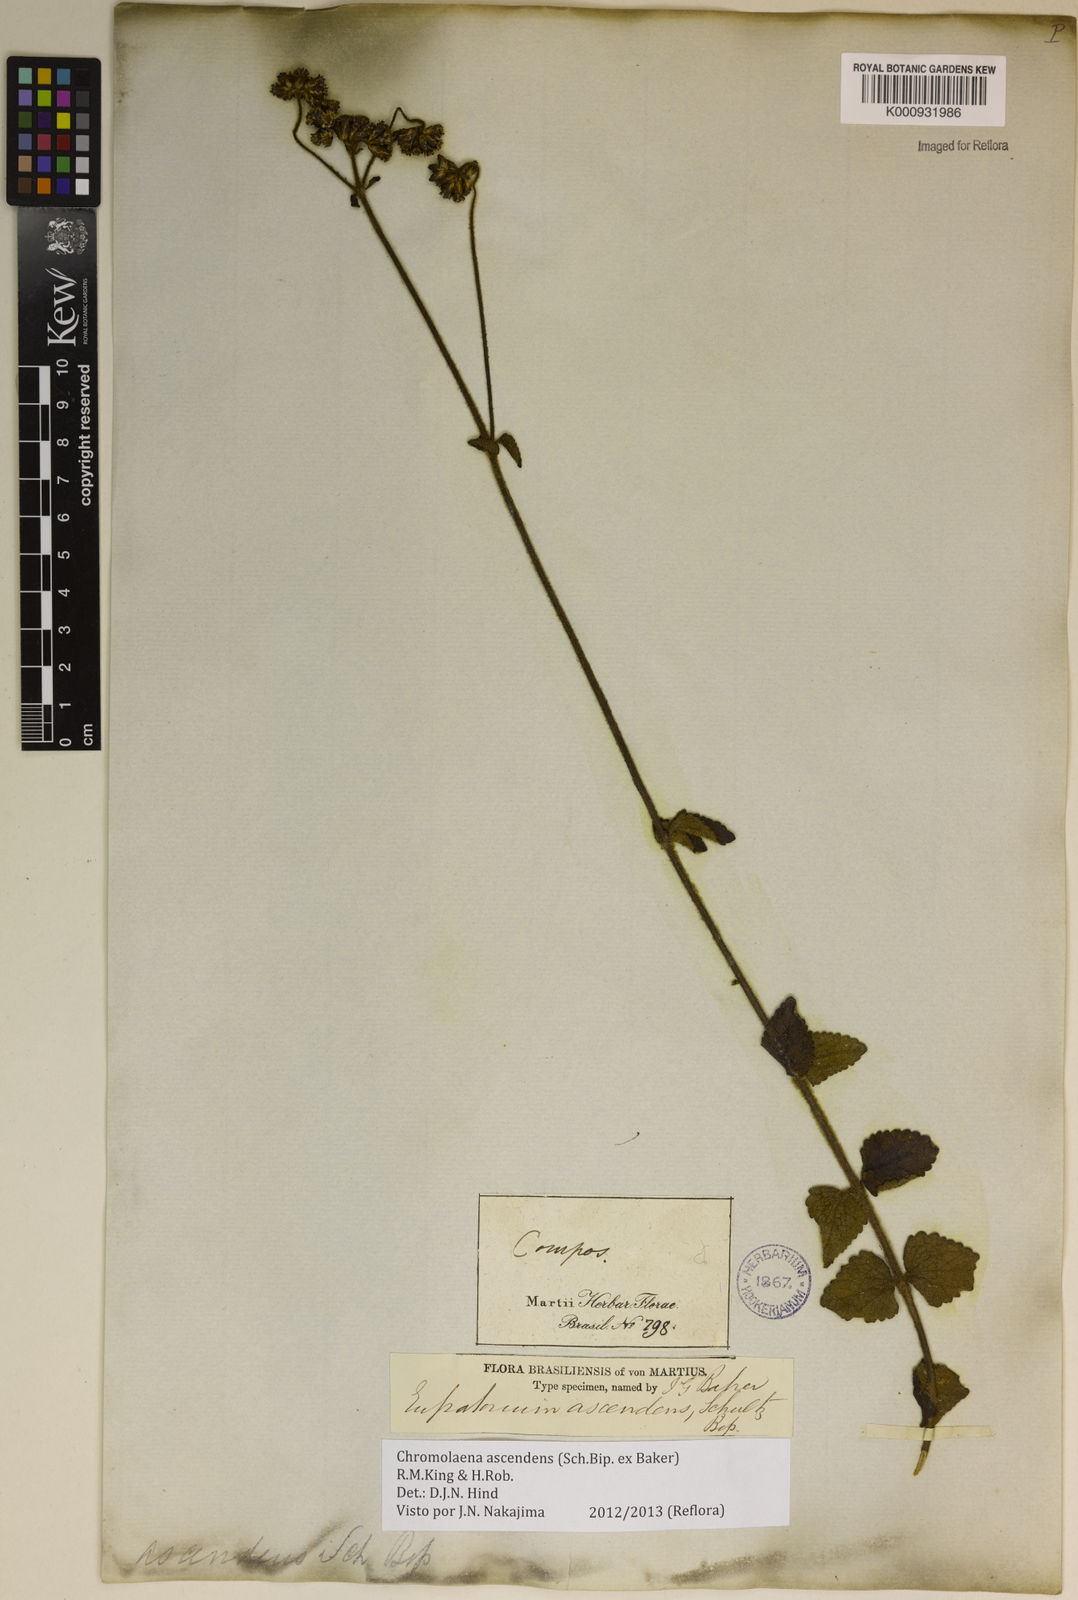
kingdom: Plantae
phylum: Tracheophyta
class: Magnoliopsida
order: Asterales
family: Asteraceae
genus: Chromolaena
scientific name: Chromolaena ascendens
